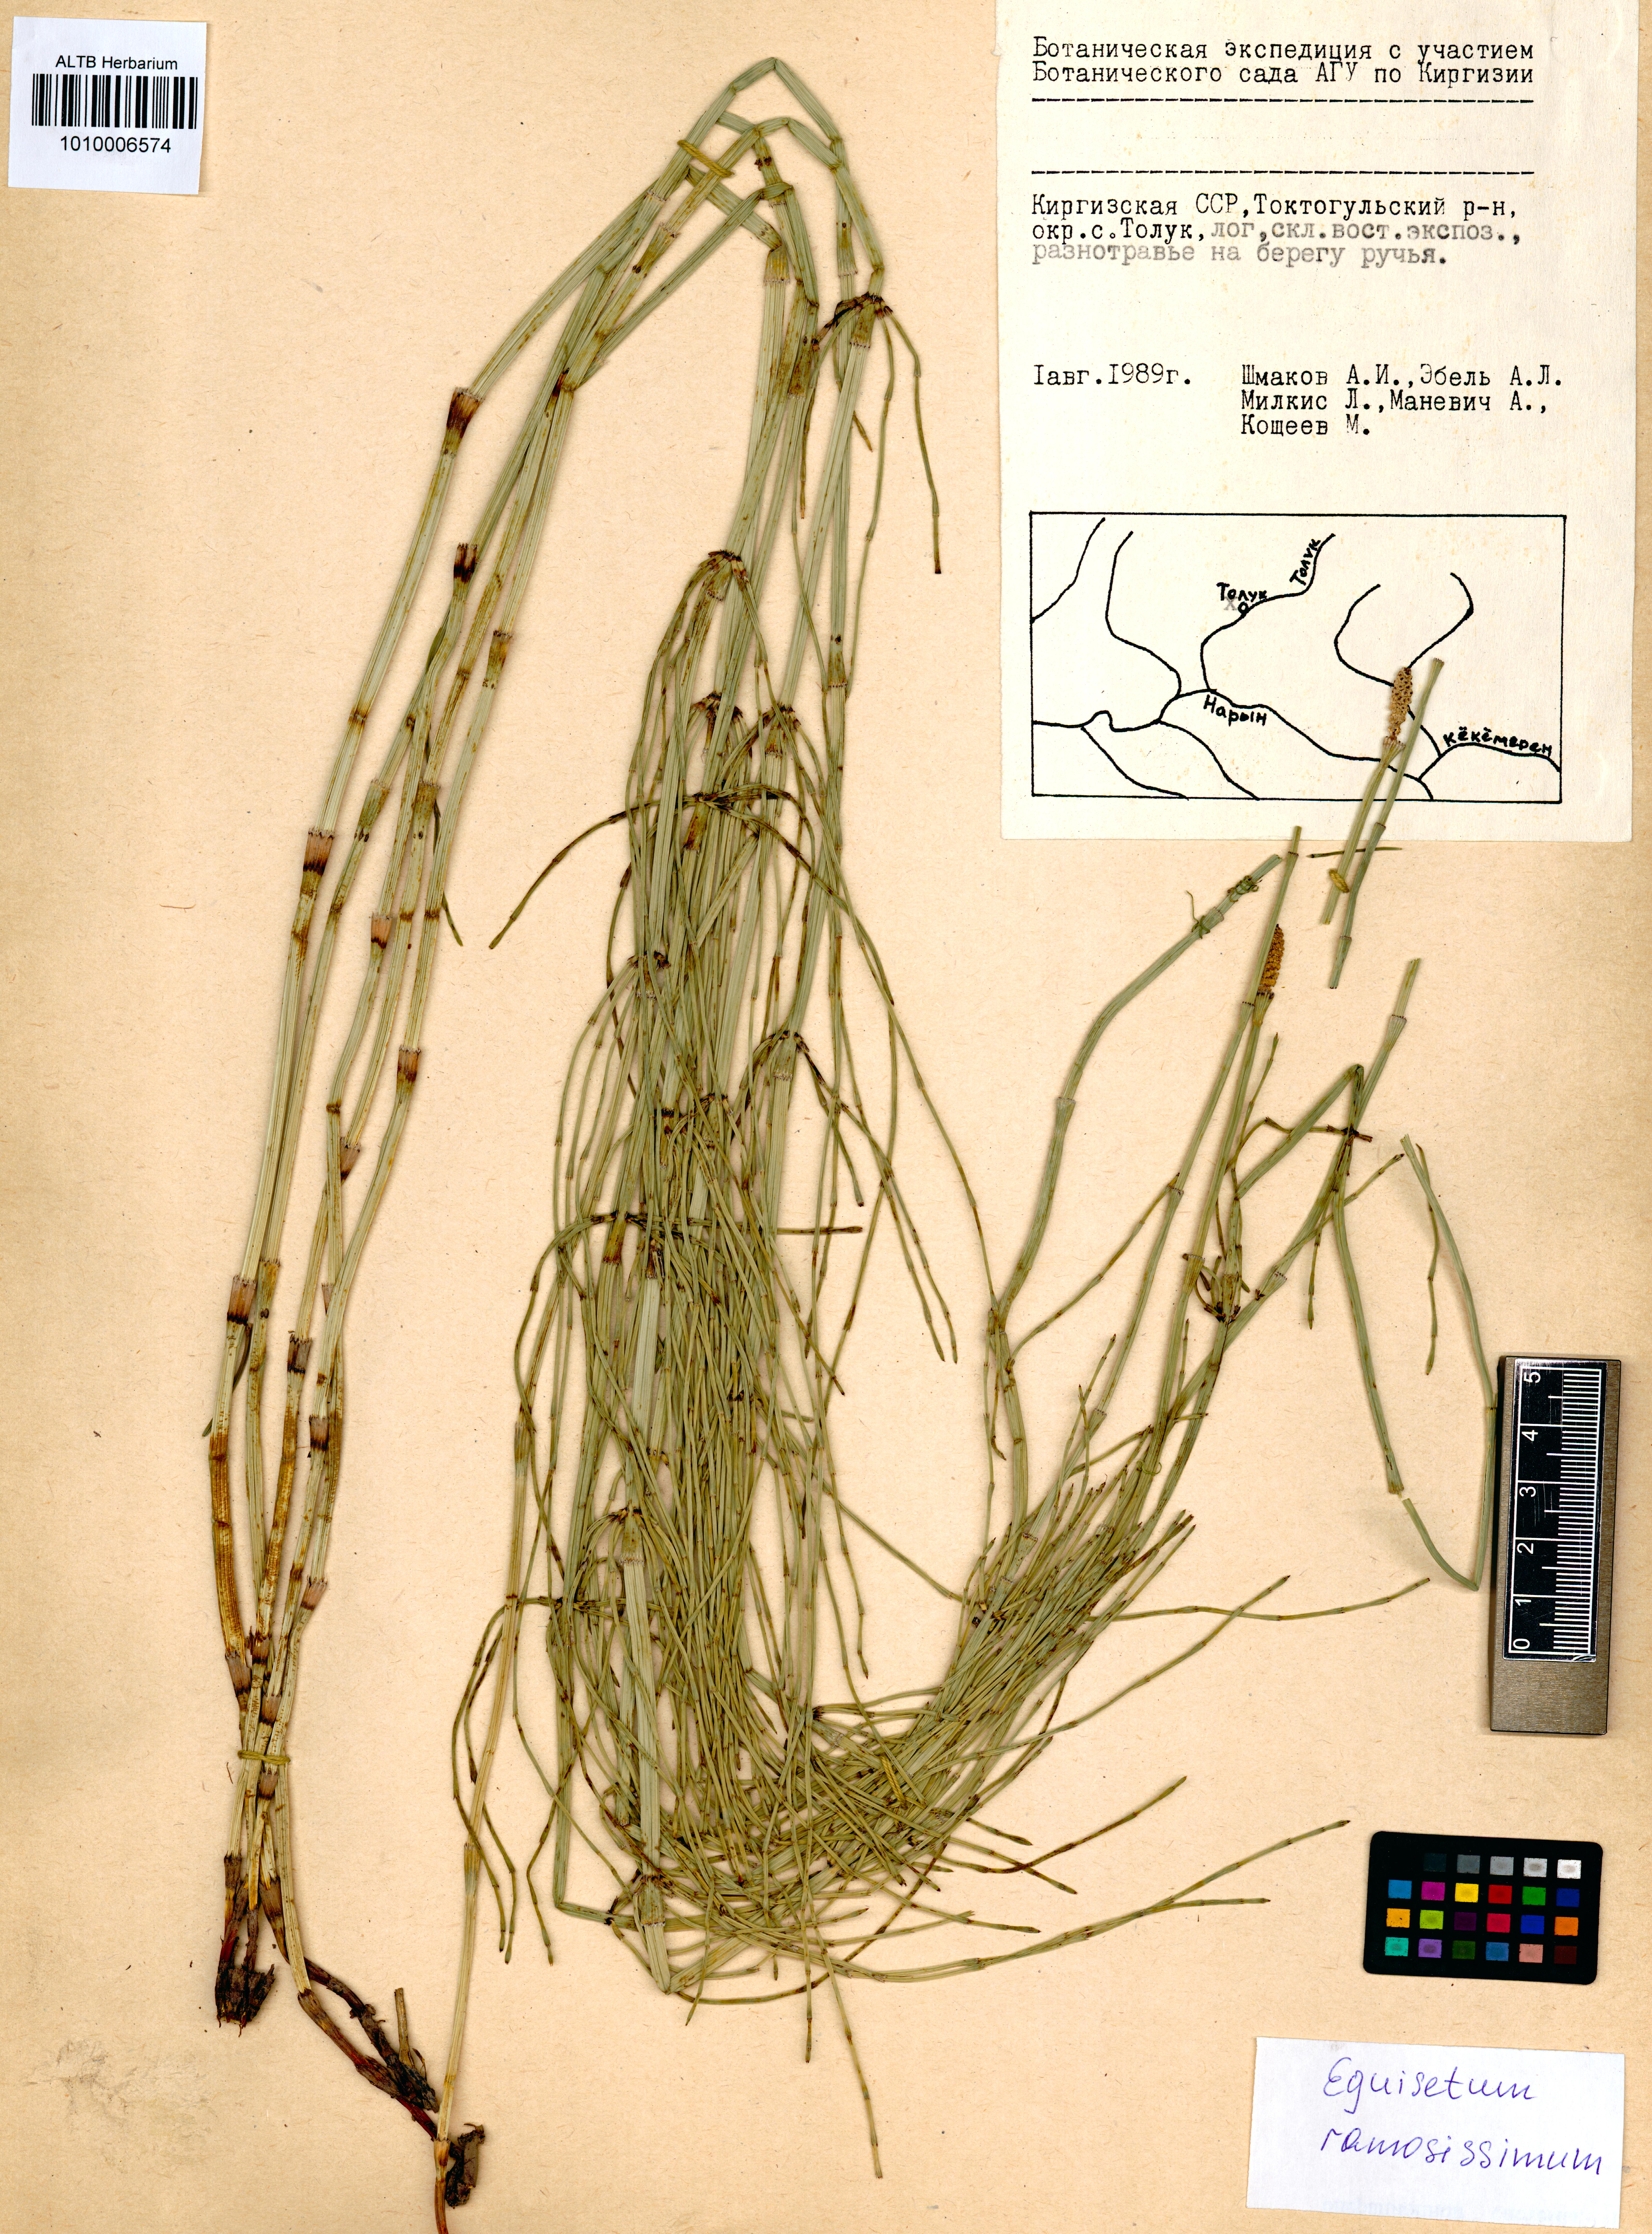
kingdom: Plantae
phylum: Tracheophyta
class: Polypodiopsida
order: Equisetales
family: Equisetaceae
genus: Equisetum
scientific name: Equisetum ramosissimum
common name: Branched horsetail
